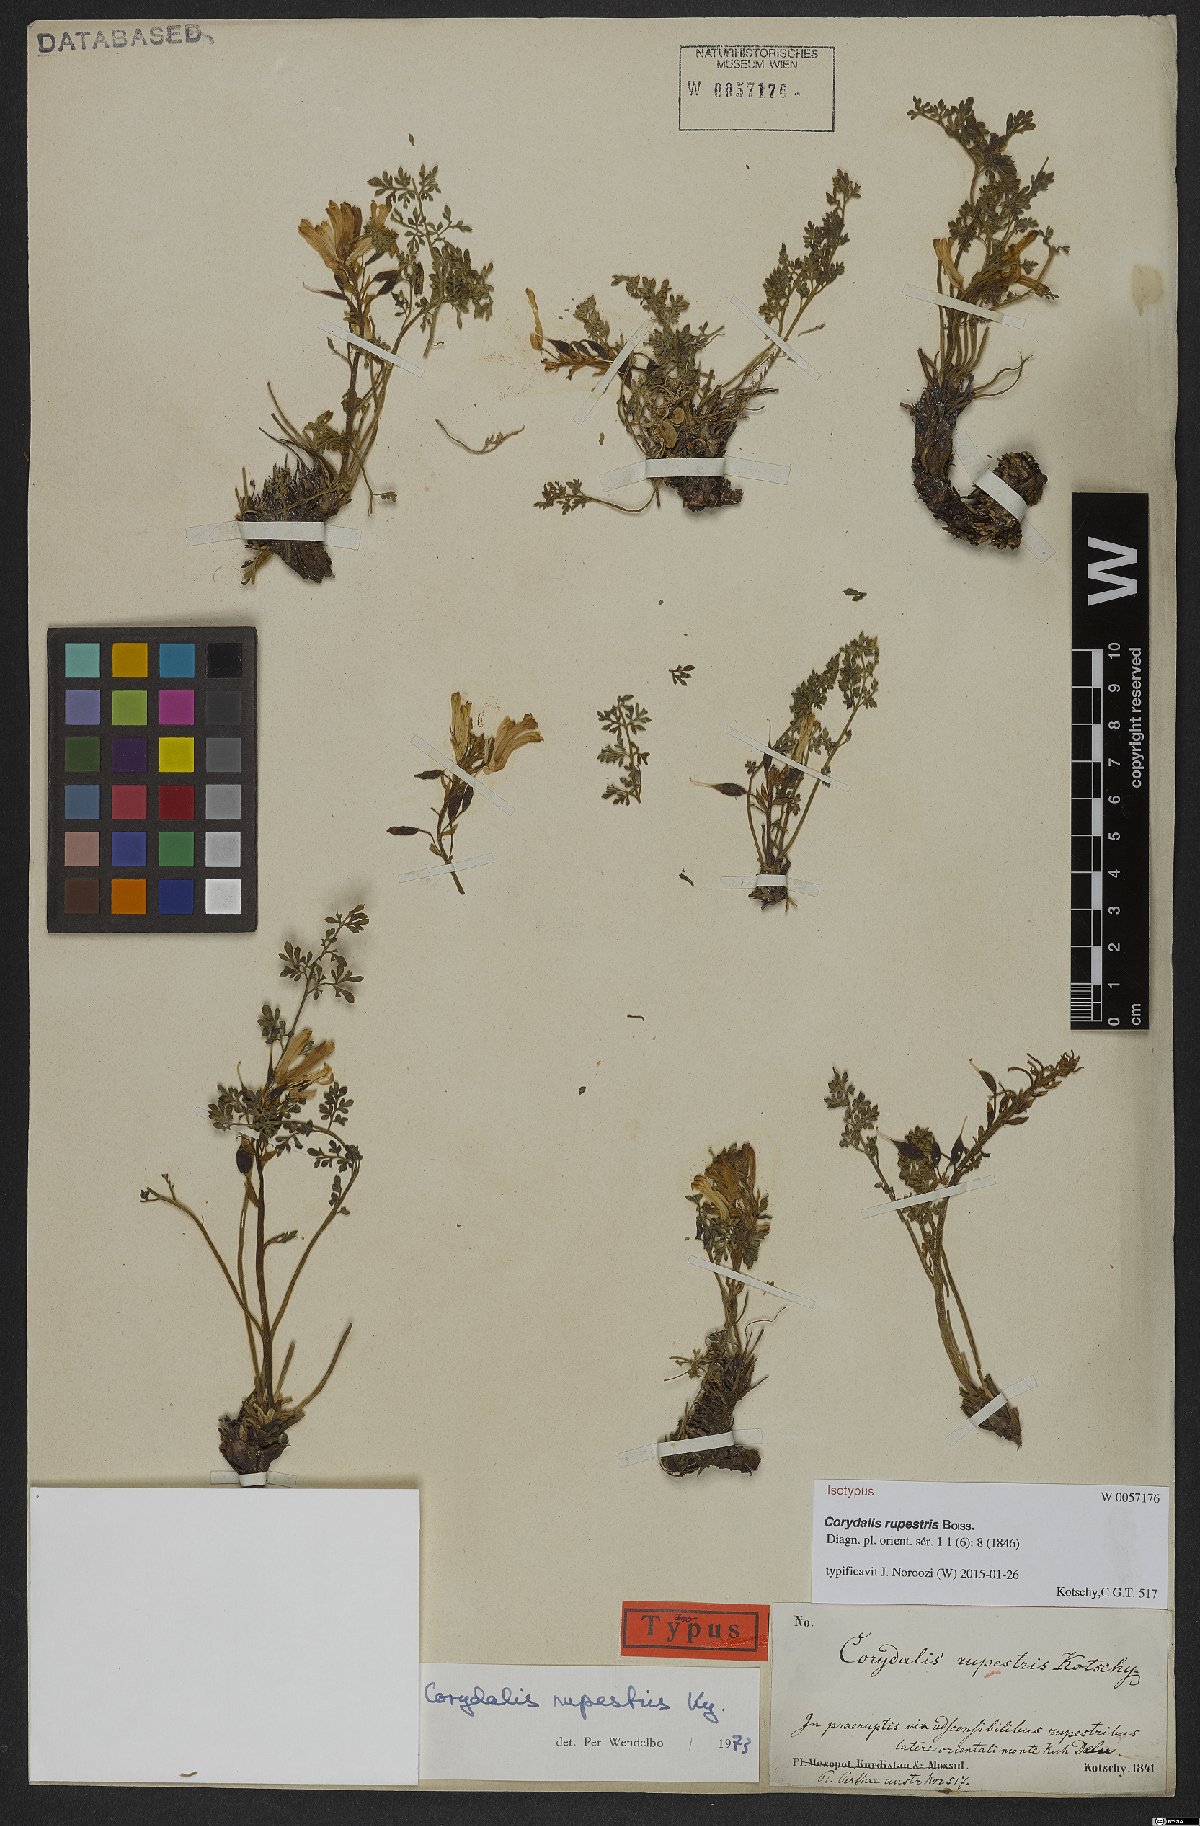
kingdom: Plantae
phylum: Tracheophyta
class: Magnoliopsida
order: Ranunculales
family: Papaveraceae
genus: Corydalis
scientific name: Corydalis rupestris
